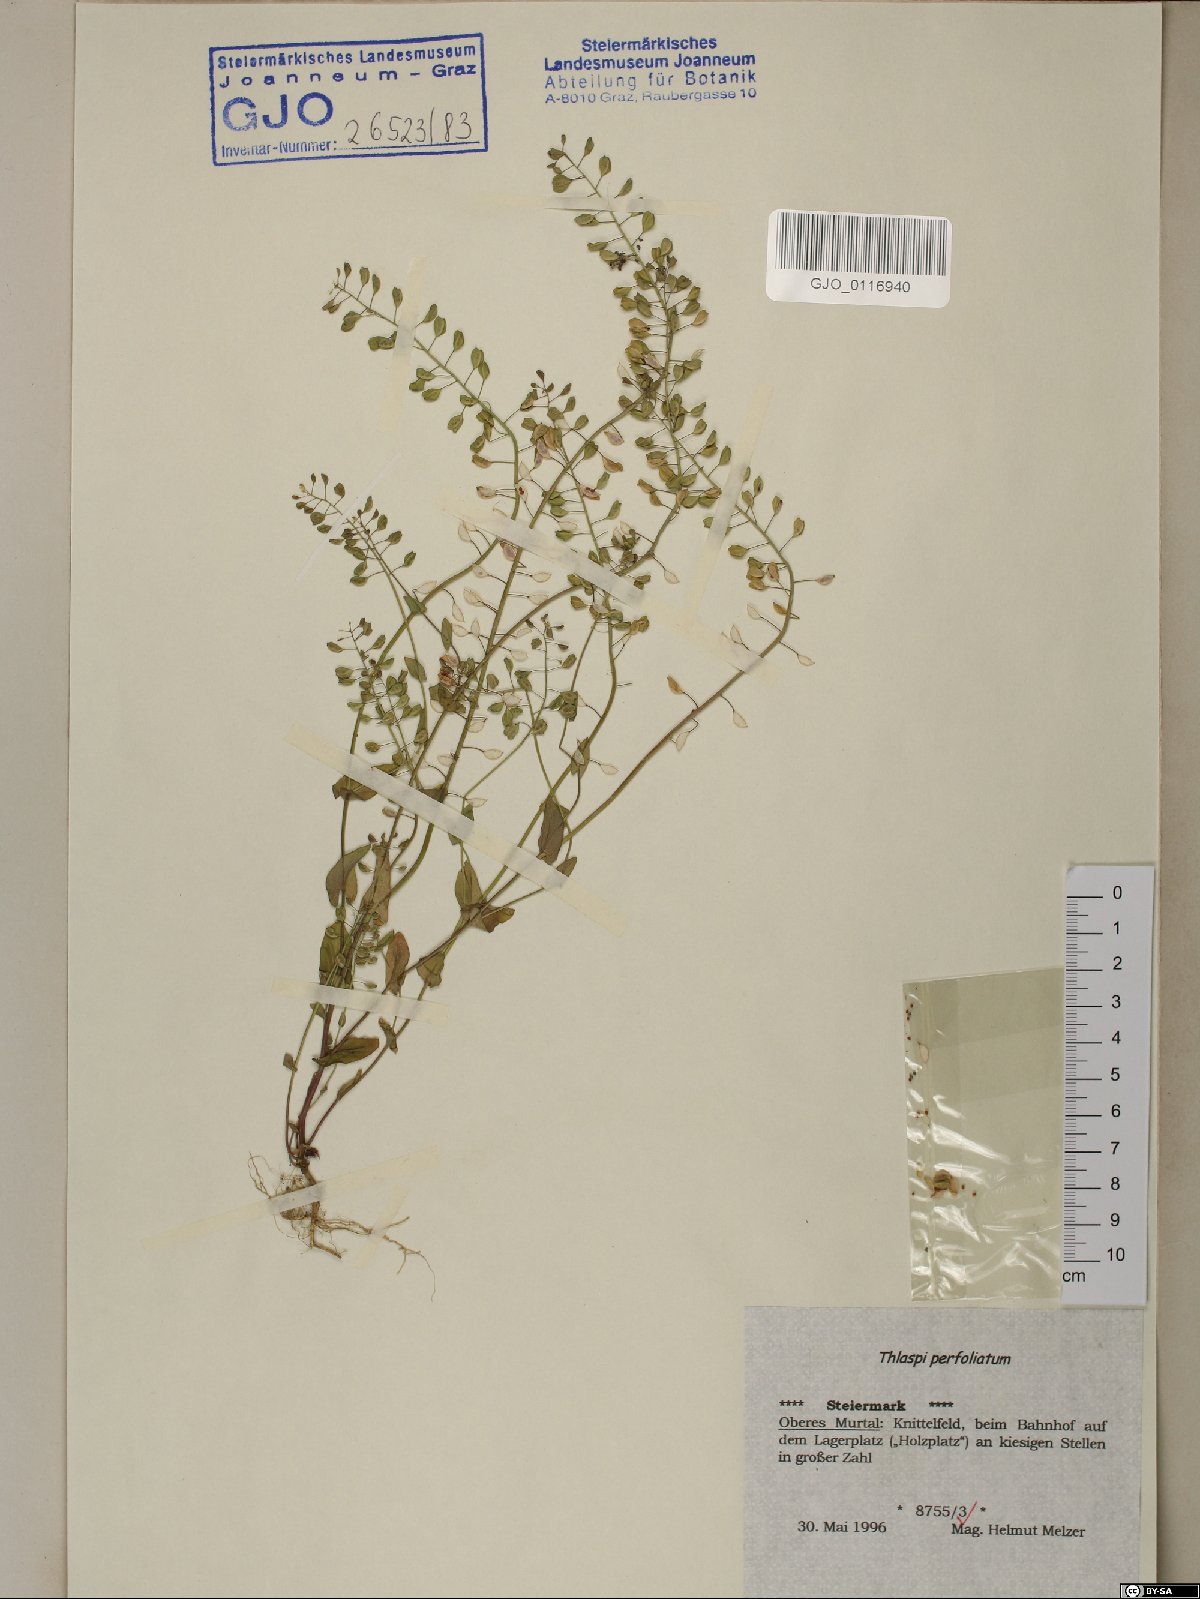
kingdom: Plantae
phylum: Tracheophyta
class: Magnoliopsida
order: Brassicales
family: Brassicaceae
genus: Noccaea
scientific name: Noccaea perfoliata
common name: Perfoliate pennycress
